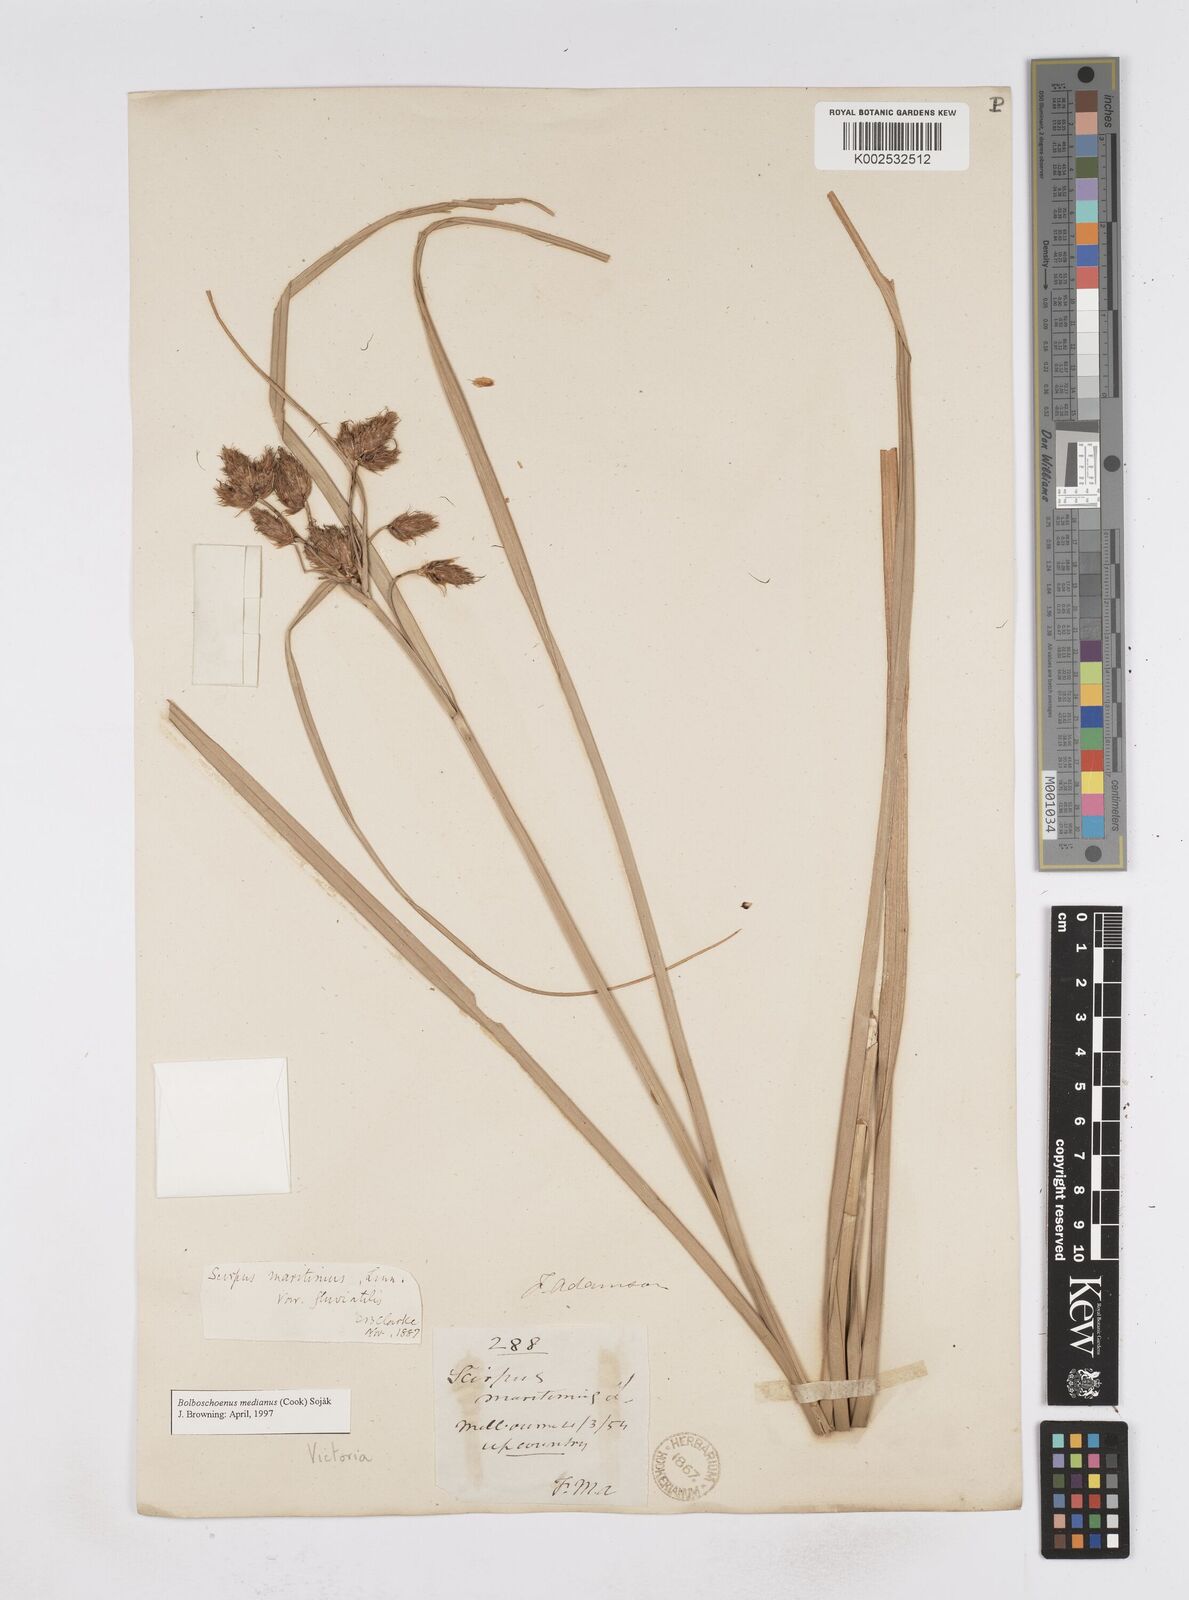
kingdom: Plantae
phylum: Tracheophyta
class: Liliopsida
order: Poales
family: Cyperaceae
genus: Bolboschoenus
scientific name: Bolboschoenus maritimus
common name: Sea club-rush
